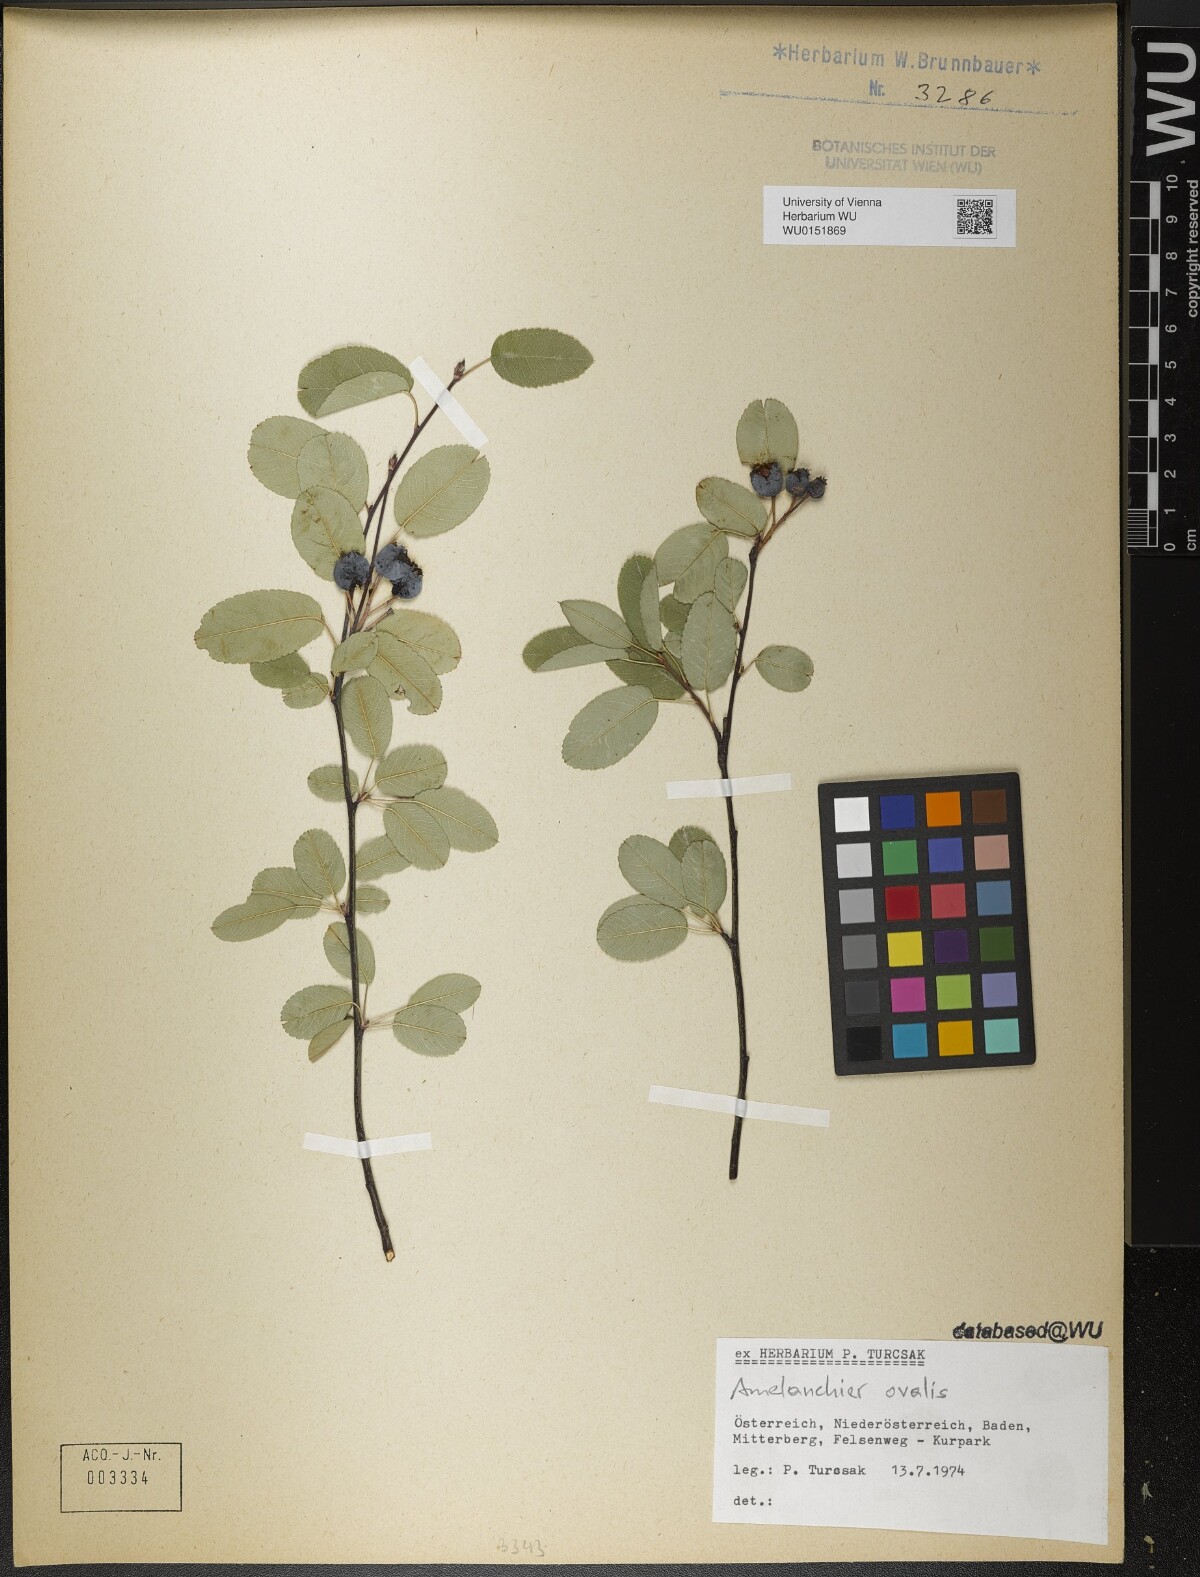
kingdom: Plantae
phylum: Tracheophyta
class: Magnoliopsida
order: Rosales
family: Rosaceae
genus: Amelanchier
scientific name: Amelanchier ovalis
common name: Serviceberry
